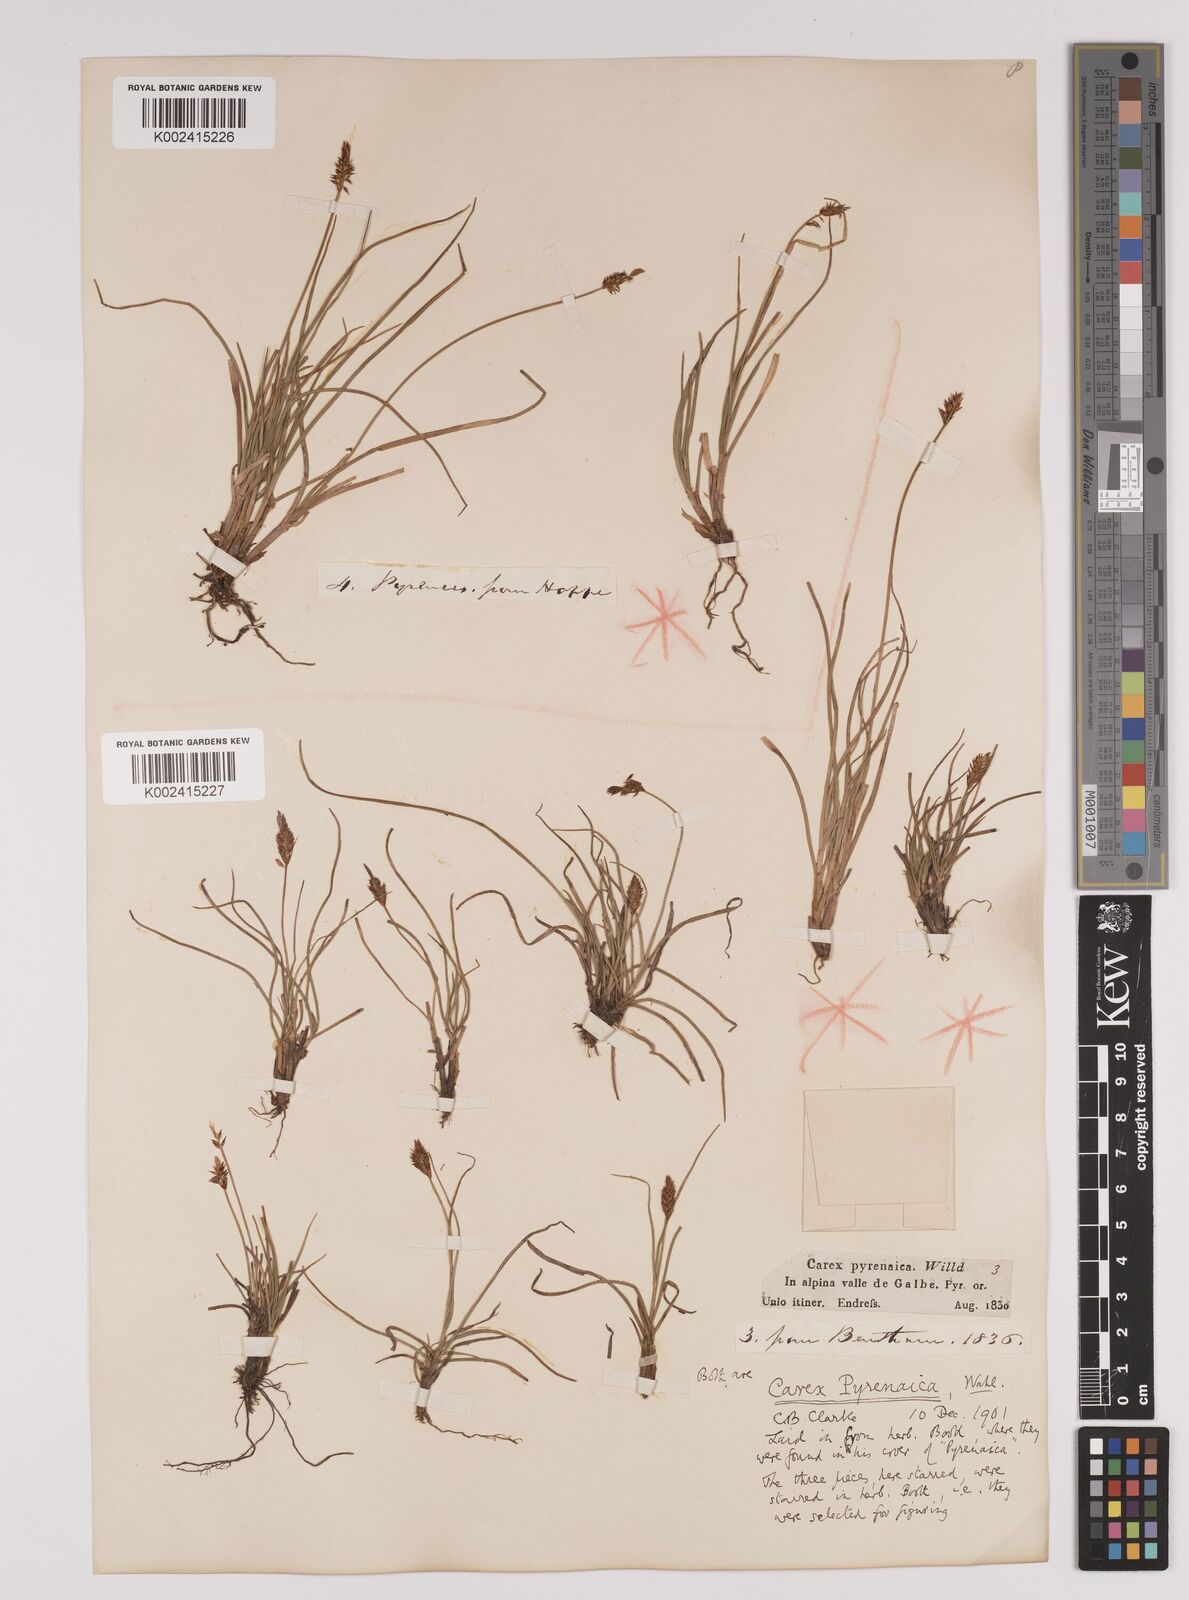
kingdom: Plantae
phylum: Tracheophyta
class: Liliopsida
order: Poales
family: Cyperaceae
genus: Carex
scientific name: Carex pyrenaica
